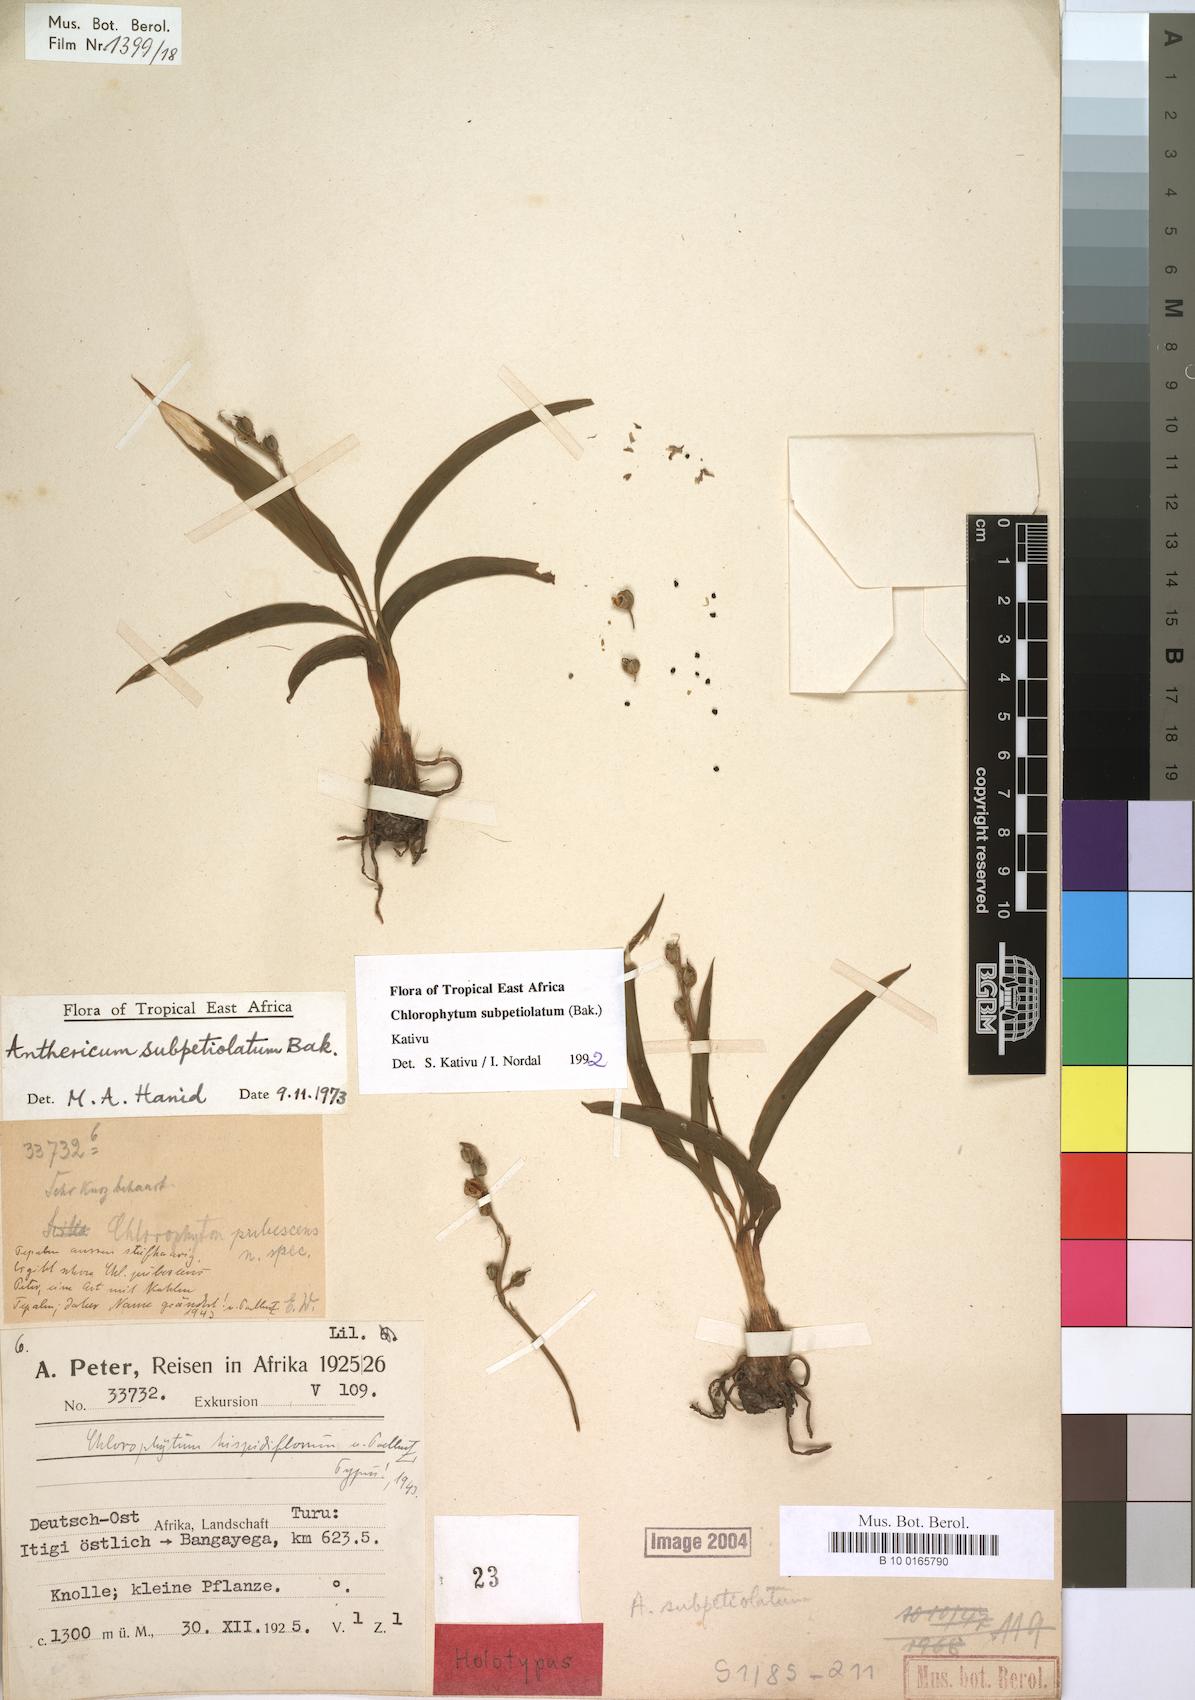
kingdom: Plantae
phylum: Tracheophyta
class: Liliopsida
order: Asparagales
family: Asparagaceae
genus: Chlorophytum
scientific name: Chlorophytum subpetiolatum
